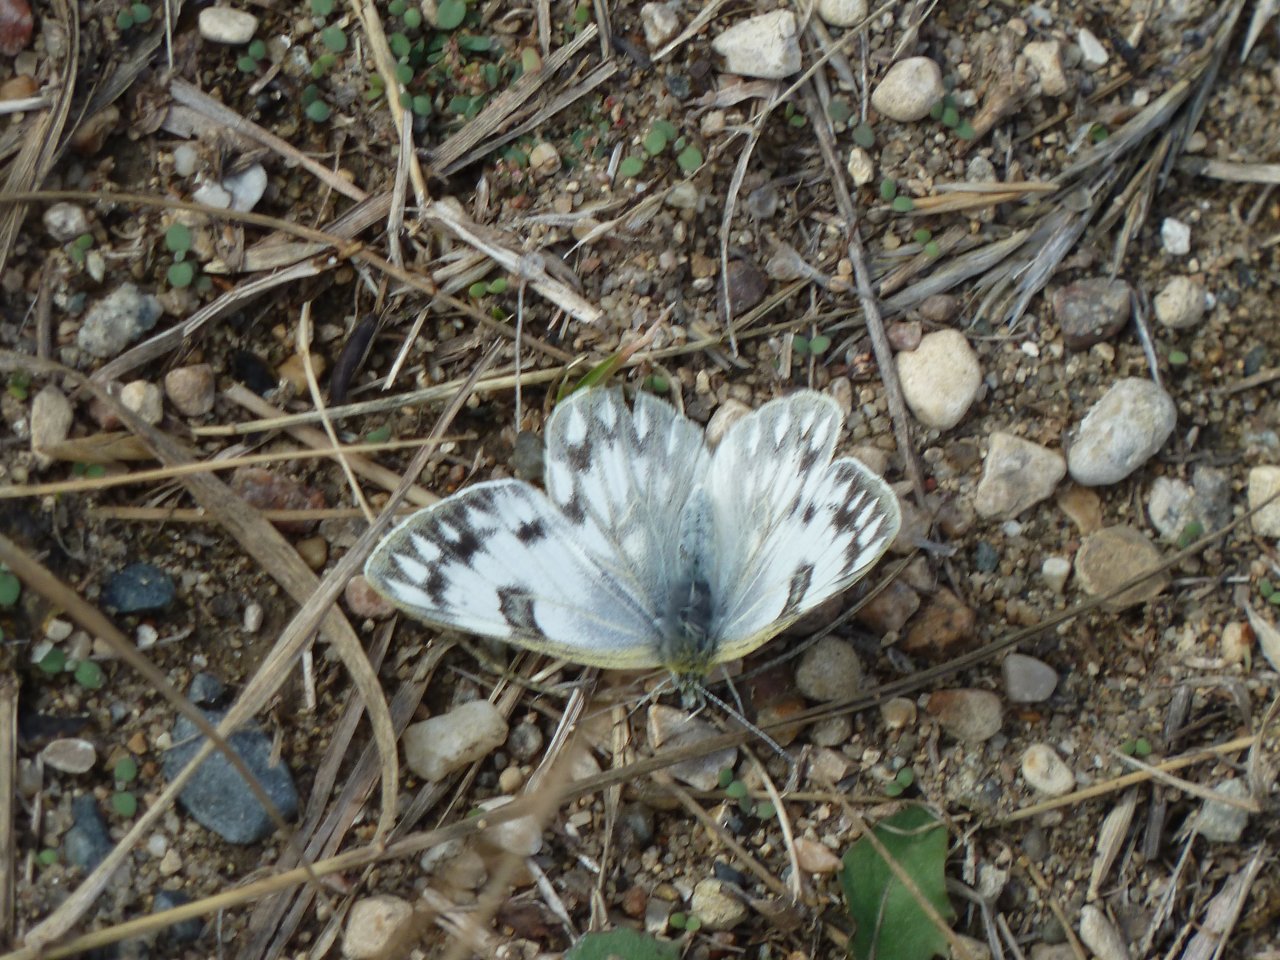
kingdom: Animalia
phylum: Arthropoda
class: Insecta
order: Lepidoptera
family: Pieridae
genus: Pontia
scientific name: Pontia occidentalis
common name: Western White
